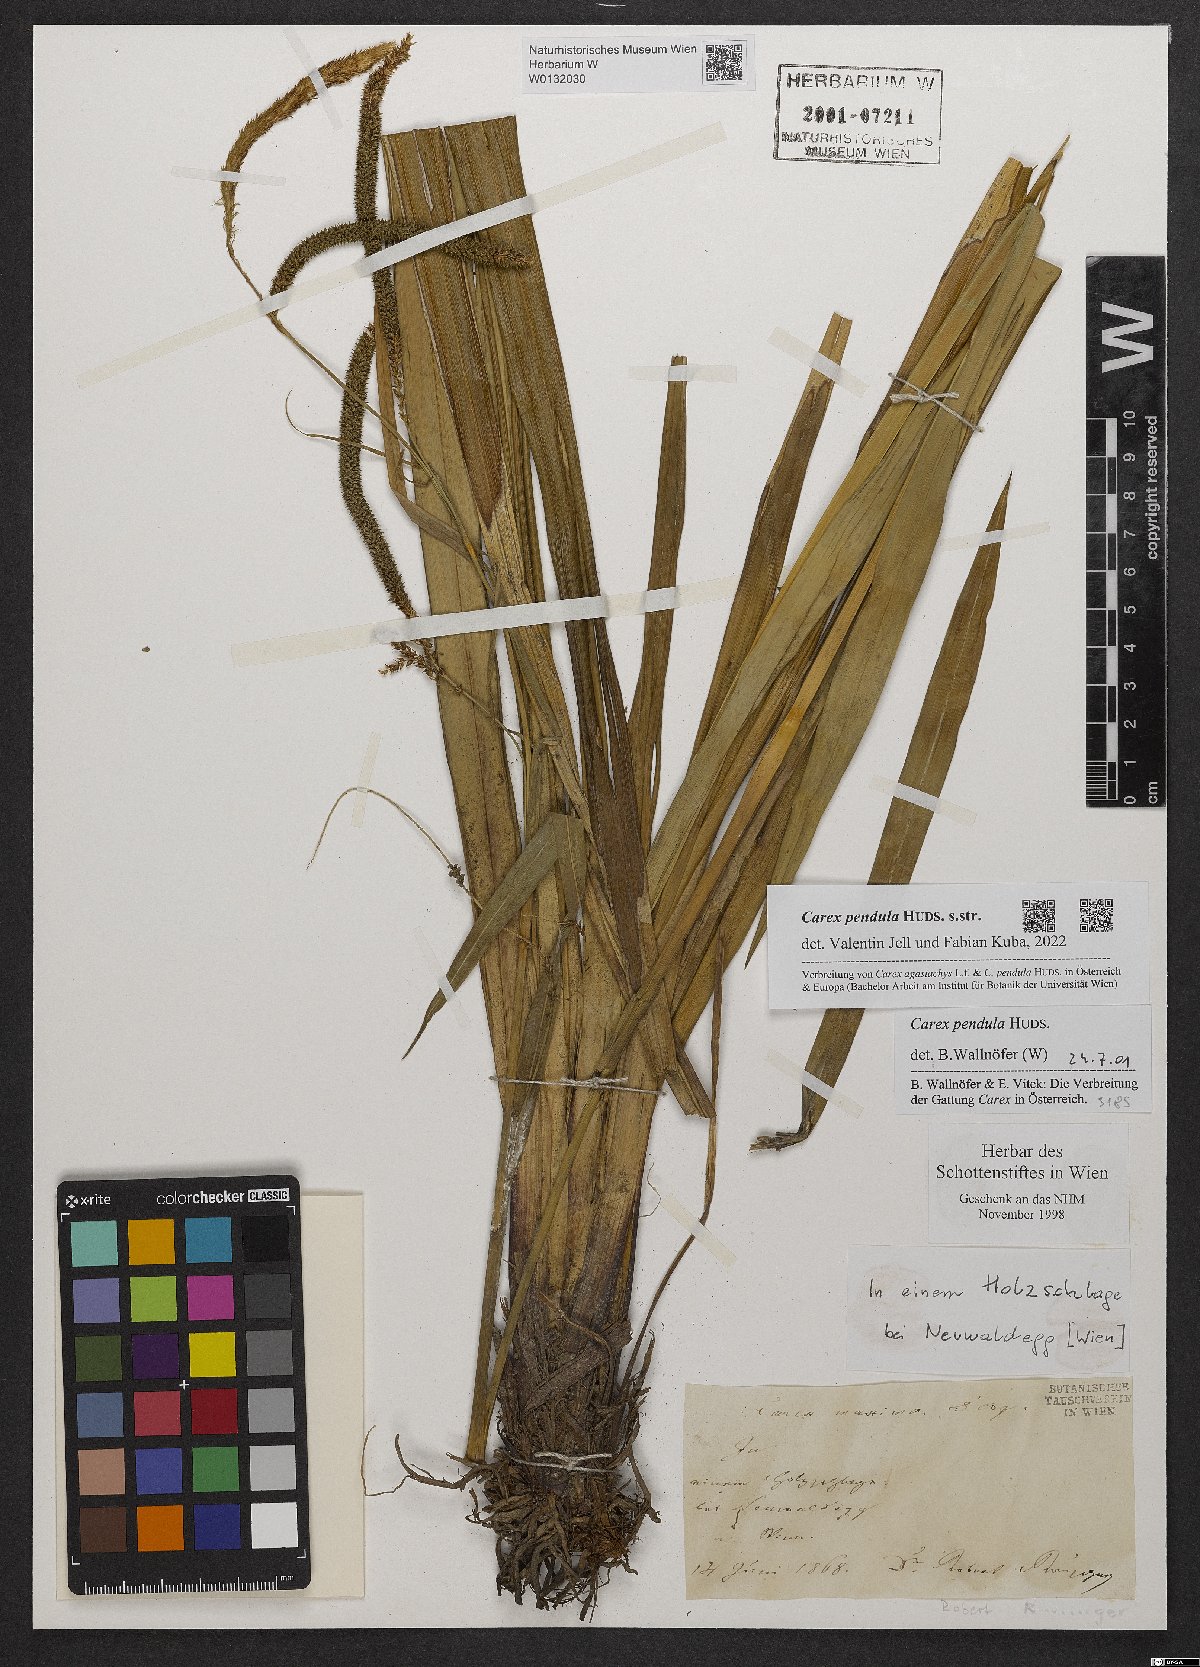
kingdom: Plantae
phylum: Tracheophyta
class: Liliopsida
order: Poales
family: Cyperaceae
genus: Carex
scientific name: Carex pendula
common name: Pendulous sedge
